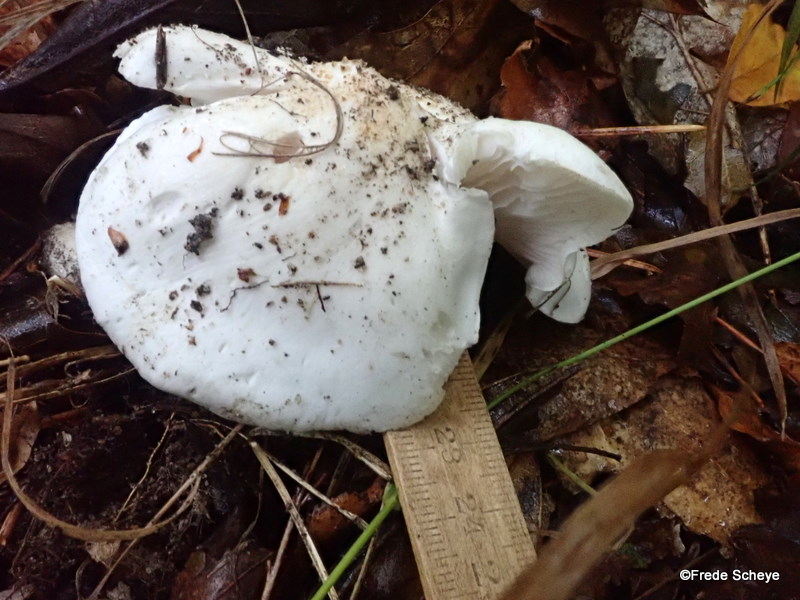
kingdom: Fungi
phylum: Basidiomycota
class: Agaricomycetes
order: Agaricales
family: Tricholomataceae
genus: Tricholoma
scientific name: Tricholoma columbetta
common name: silke-ridderhat
